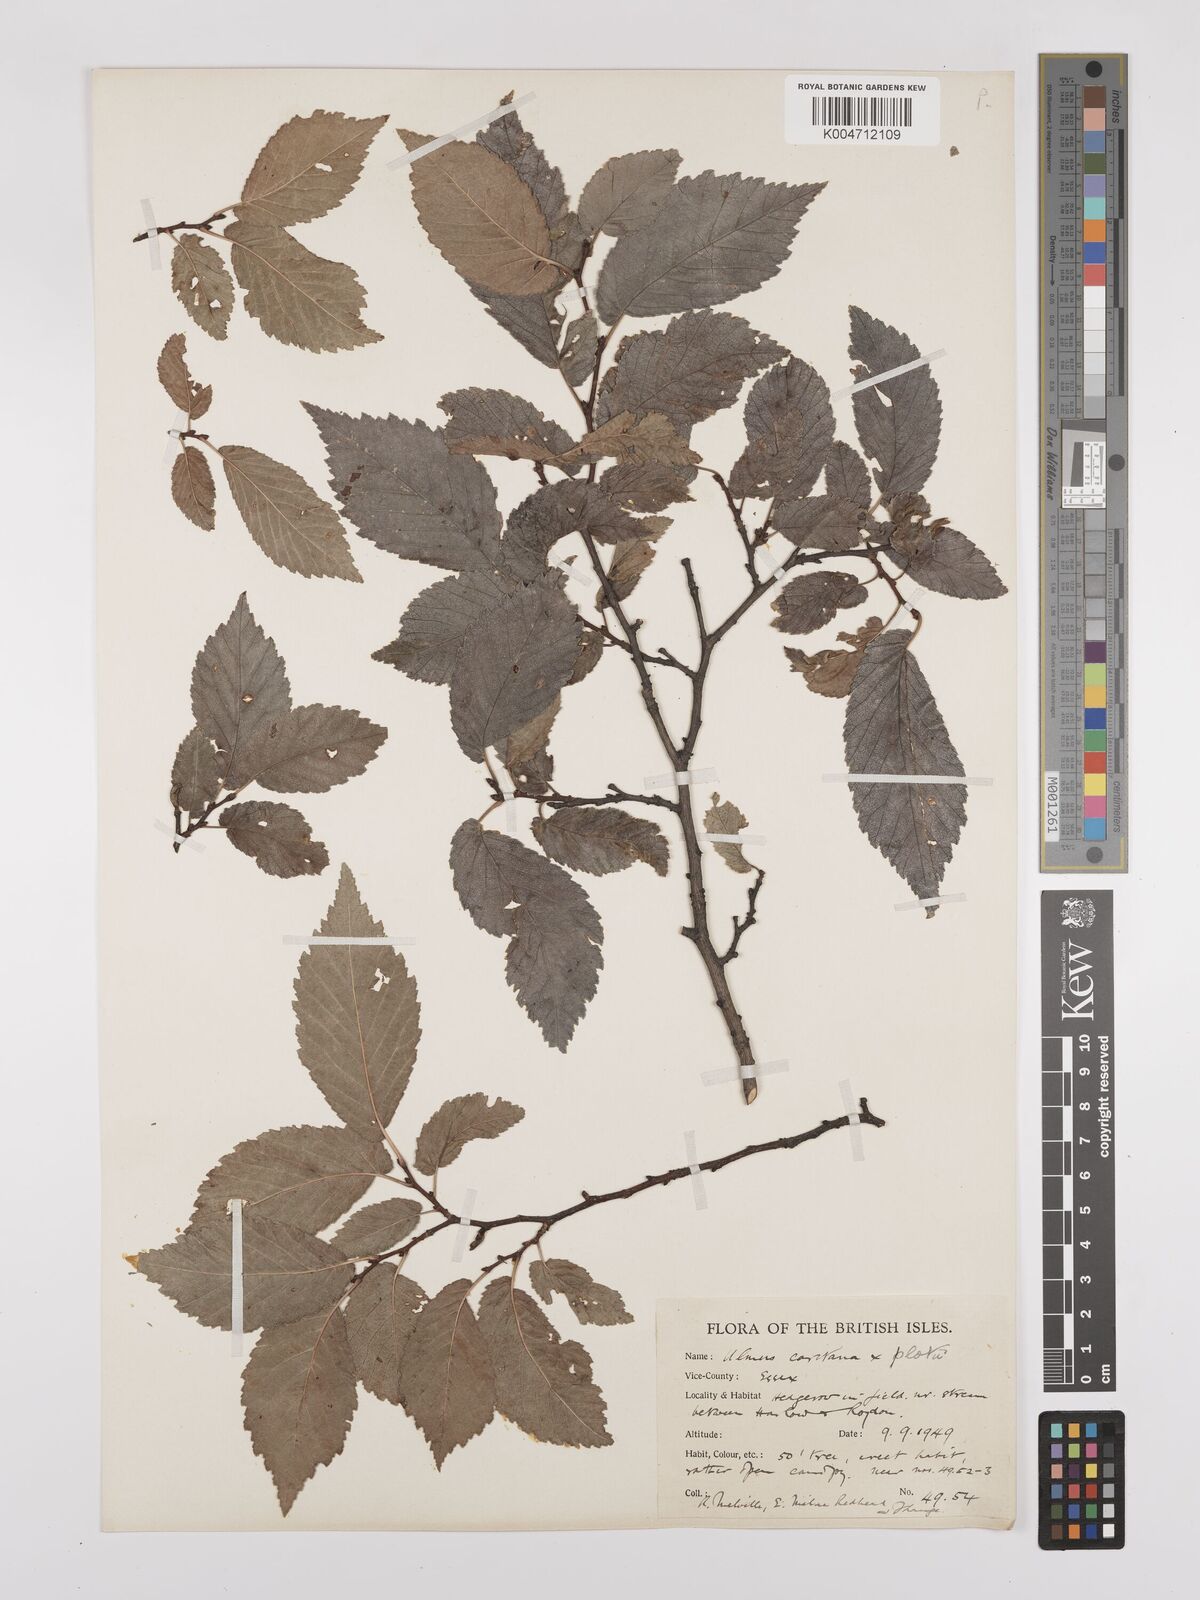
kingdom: Plantae
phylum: Tracheophyta
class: Magnoliopsida
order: Rosales
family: Ulmaceae
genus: Ulmus
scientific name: Ulmus minor
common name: Small-leaved elm
